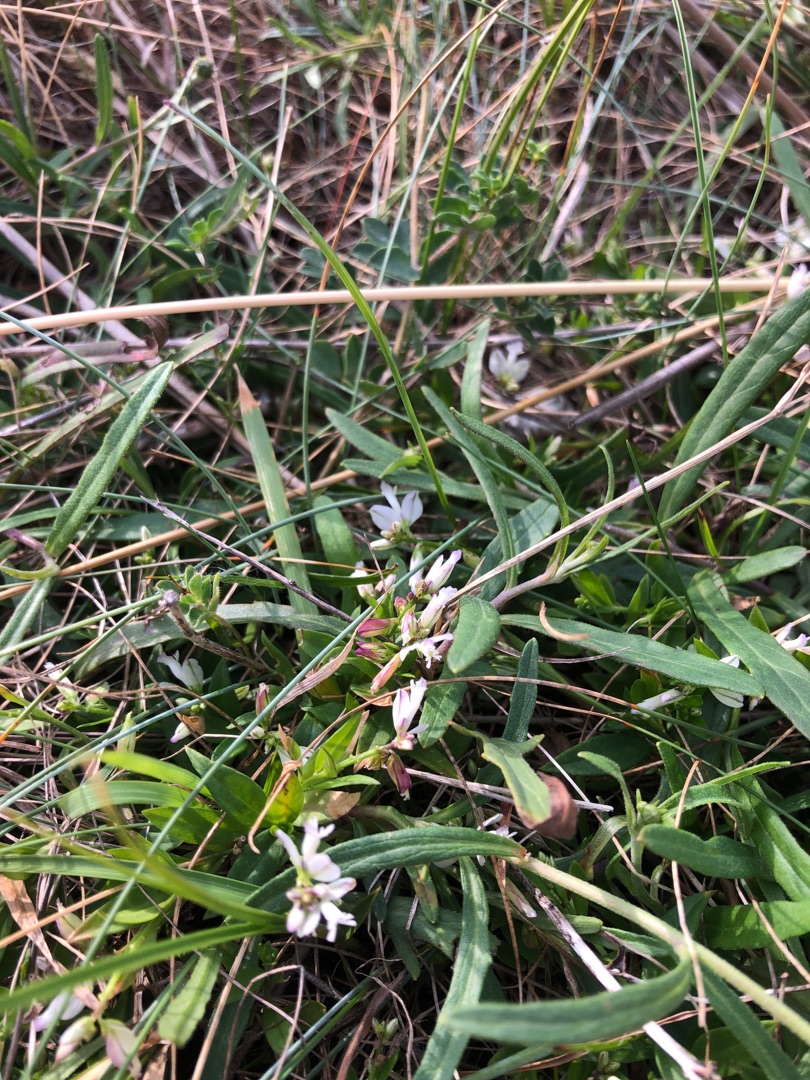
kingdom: Plantae
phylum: Tracheophyta
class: Magnoliopsida
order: Fabales
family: Polygalaceae
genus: Polygala
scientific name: Polygala
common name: Mælkeurtslægten
